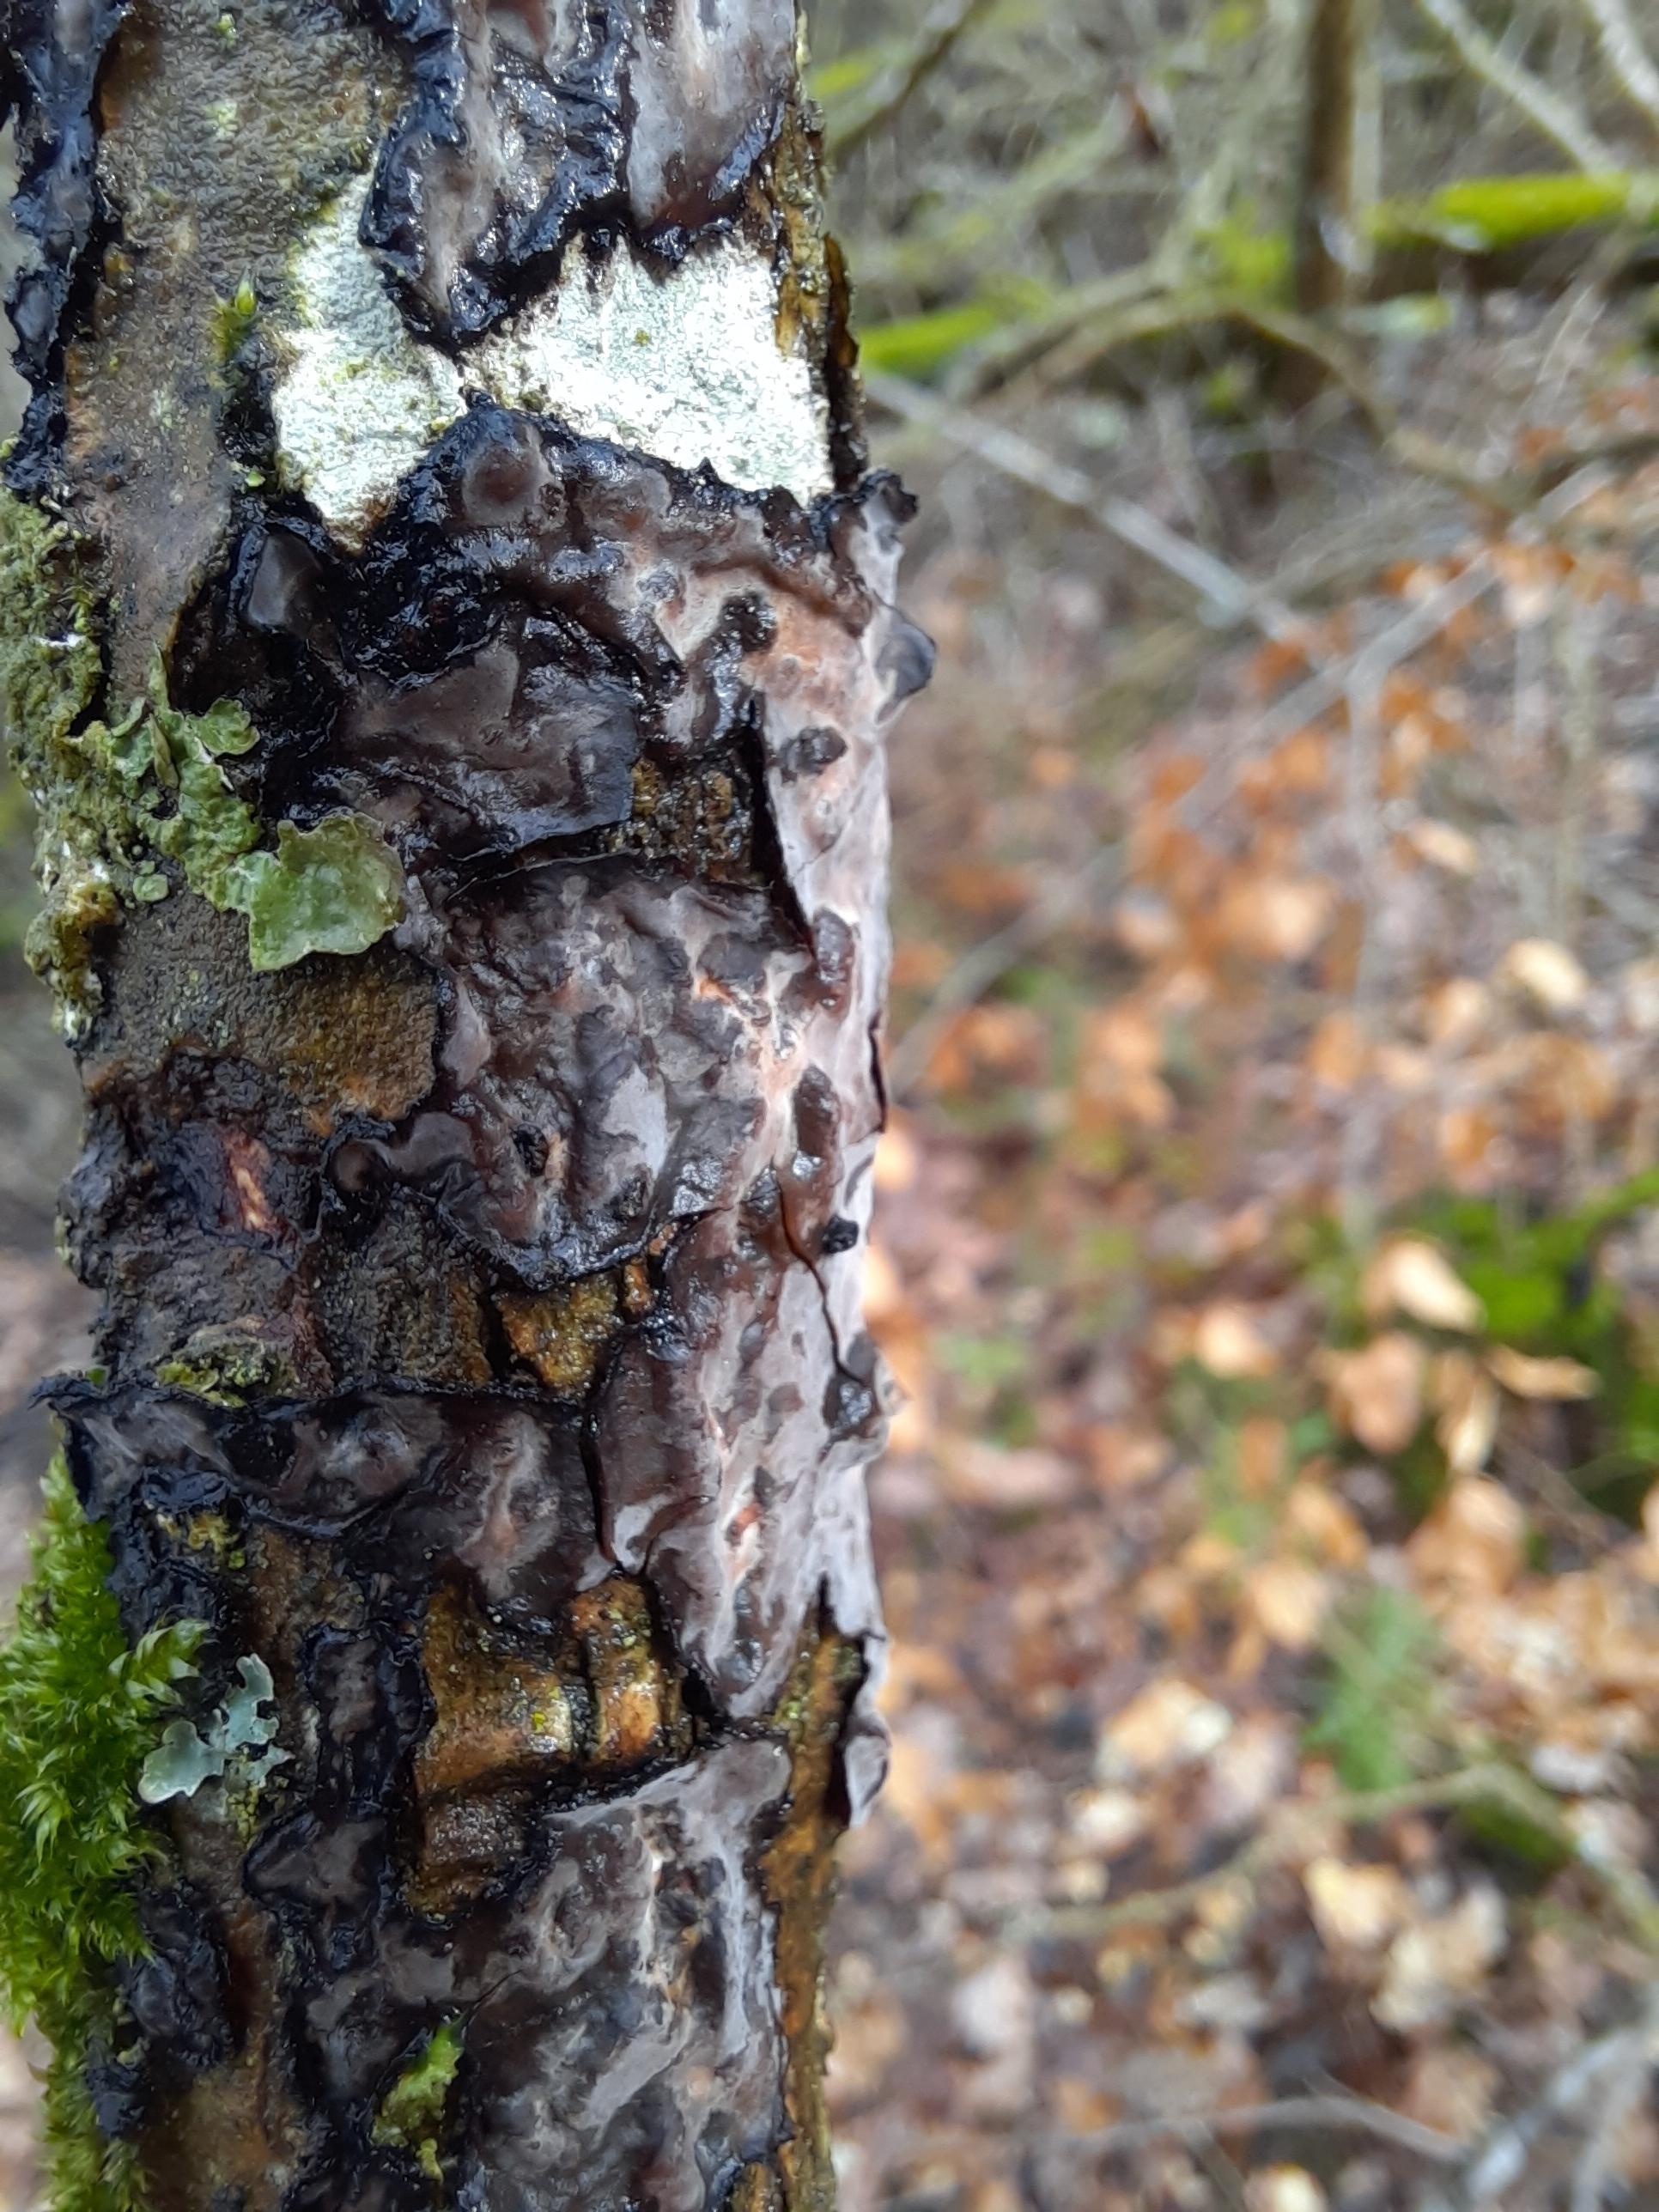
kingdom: Fungi
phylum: Basidiomycota
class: Agaricomycetes
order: Russulales
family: Peniophoraceae
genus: Peniophora
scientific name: Peniophora quercina
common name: ege-voksskind
